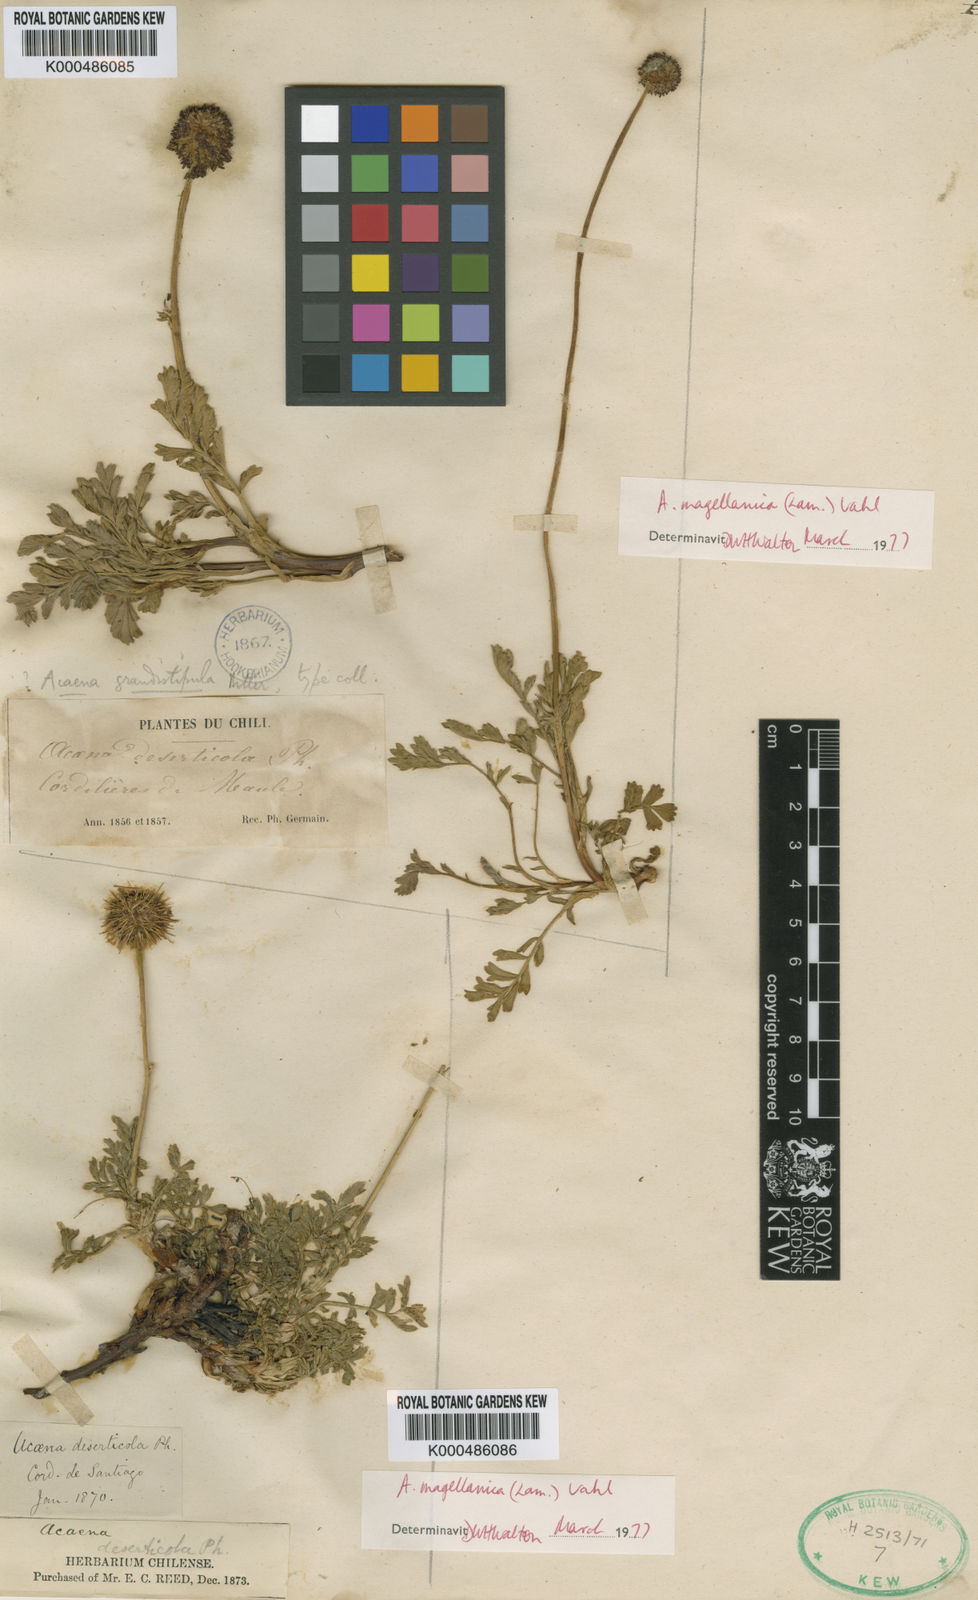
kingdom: Plantae
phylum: Tracheophyta
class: Magnoliopsida
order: Rosales
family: Rosaceae
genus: Acaena
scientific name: Acaena magellanica
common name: New zealand burr
